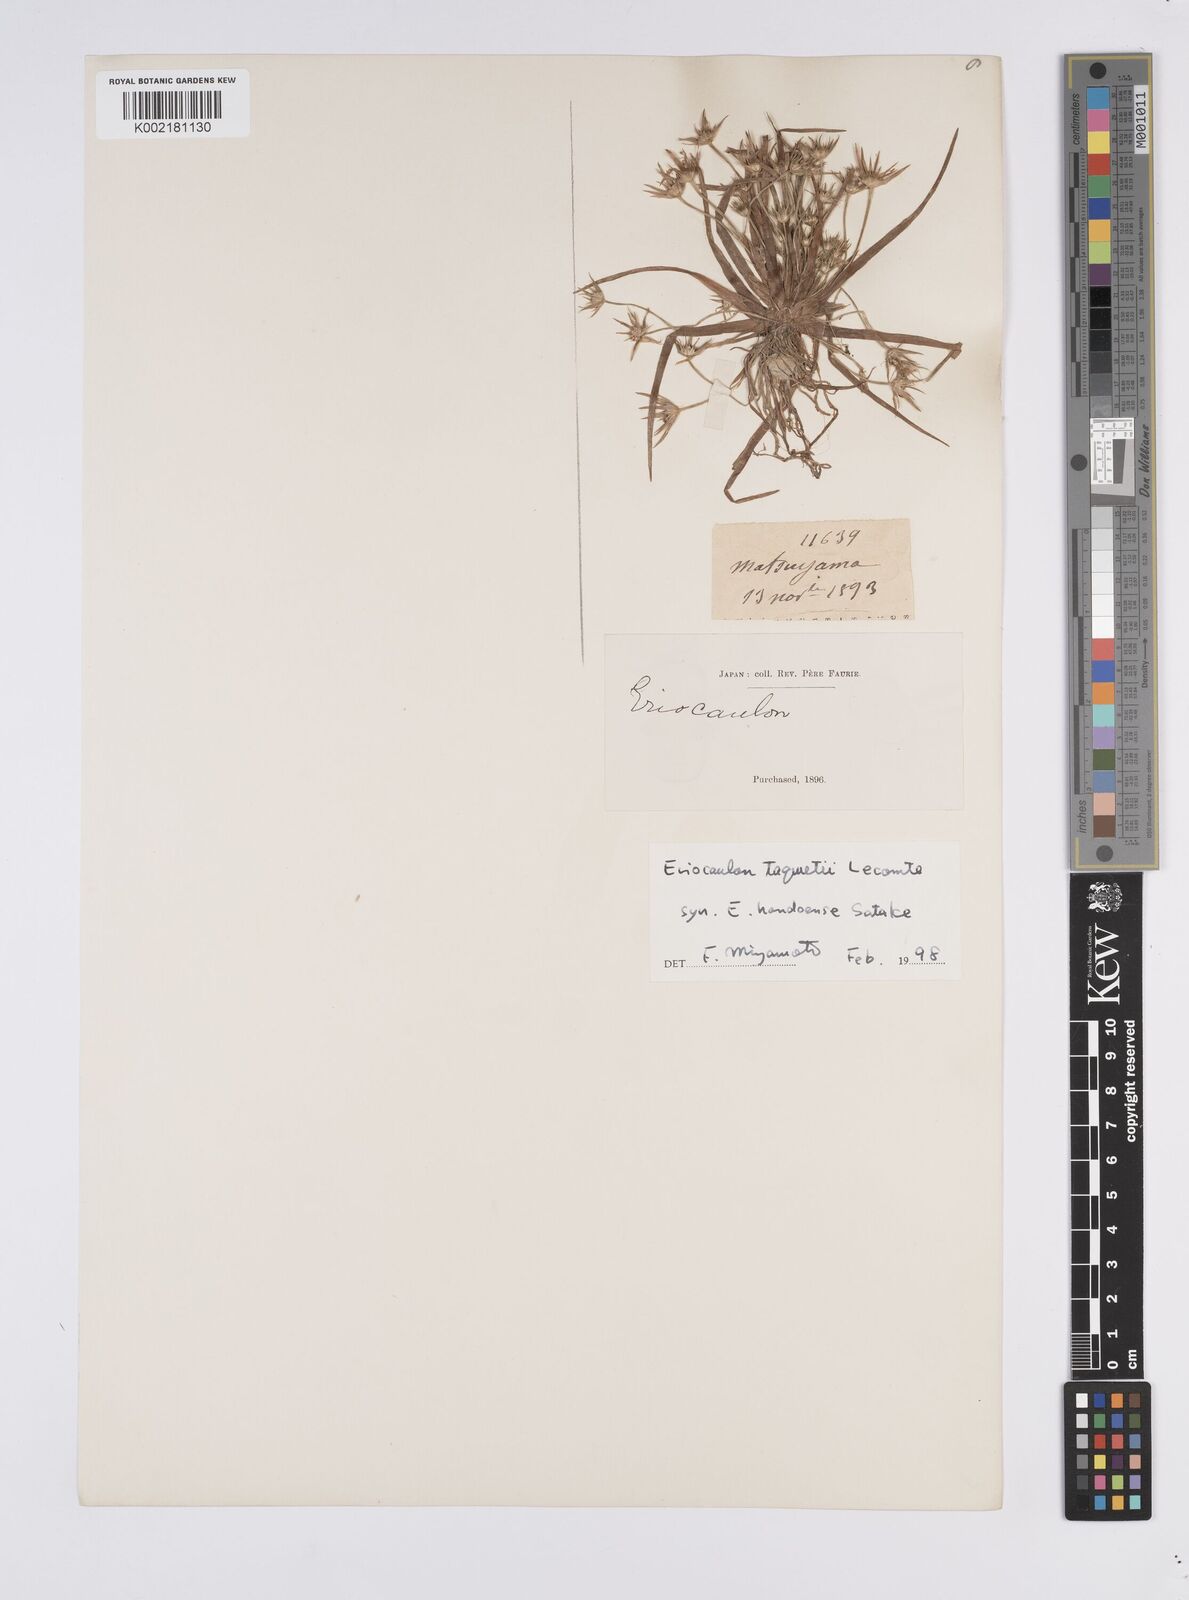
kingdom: Plantae
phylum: Tracheophyta
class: Liliopsida
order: Poales
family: Eriocaulaceae
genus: Eriocaulon
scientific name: Eriocaulon taquetii
